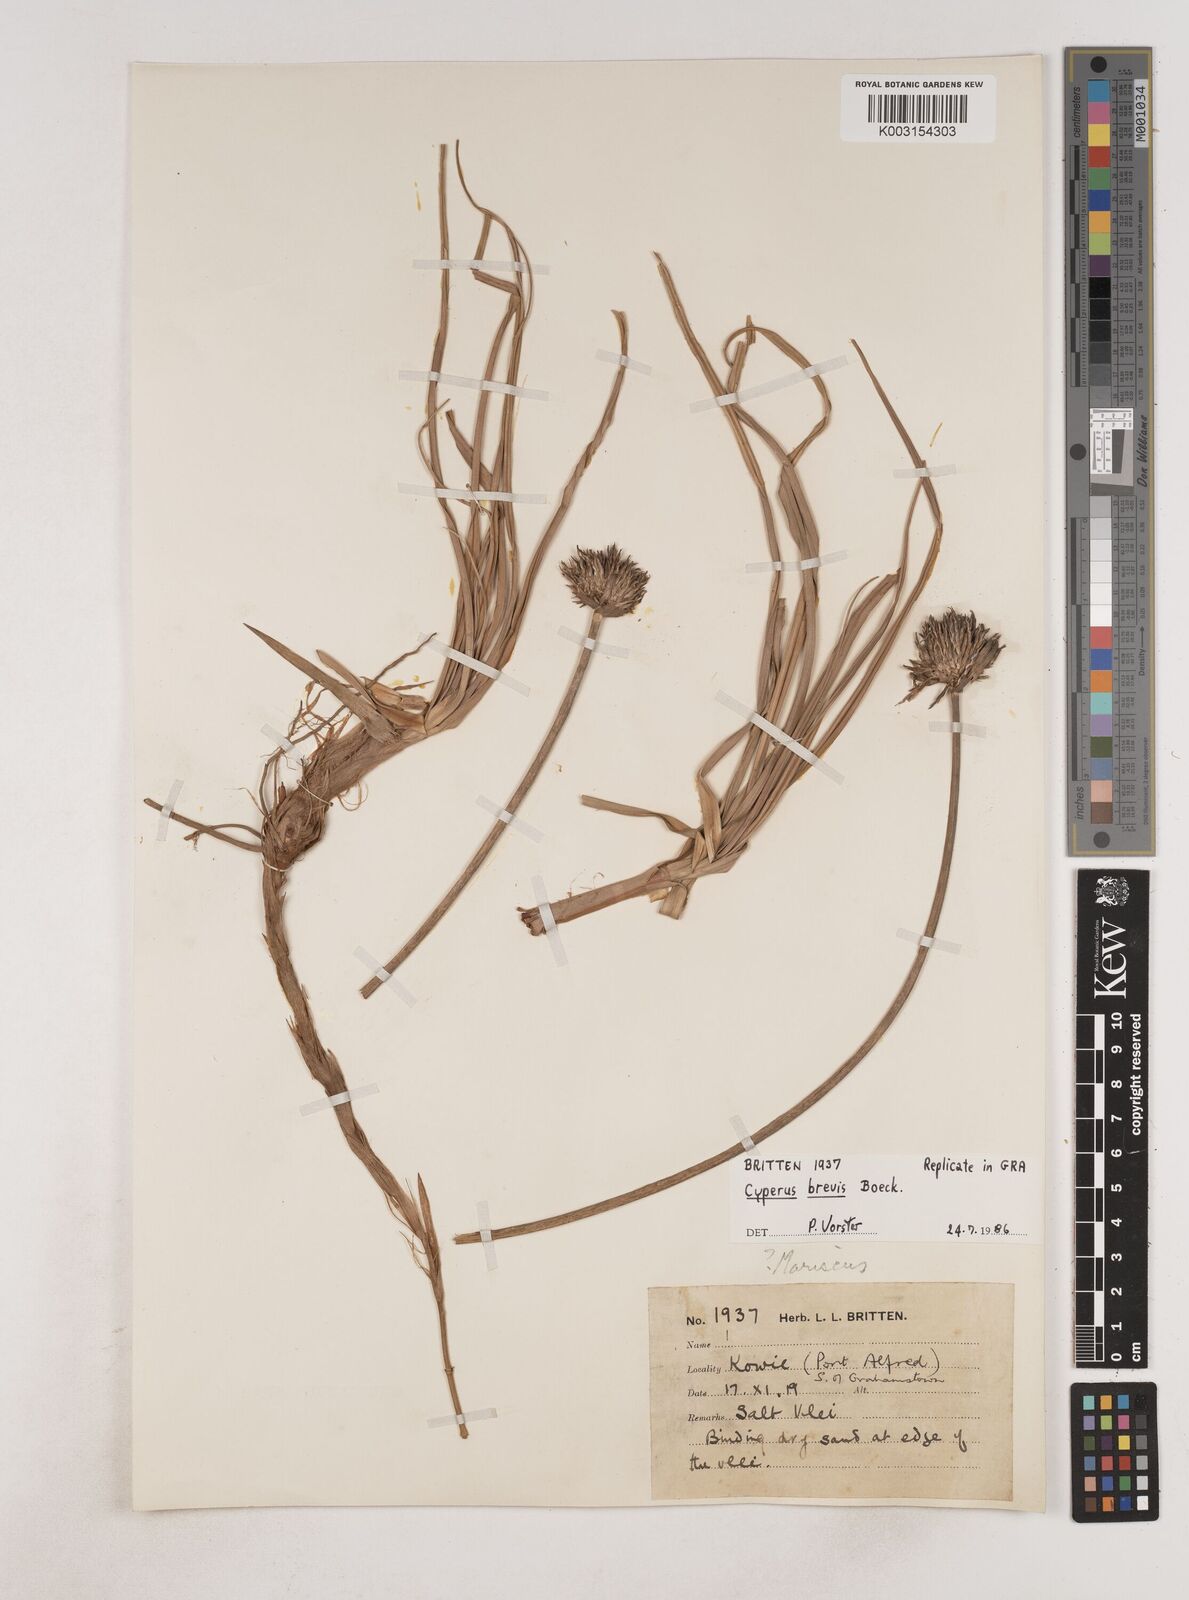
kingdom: Plantae
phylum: Tracheophyta
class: Liliopsida
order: Poales
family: Cyperaceae
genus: Cyperus
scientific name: Cyperus congestus
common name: Dense flat sedge
